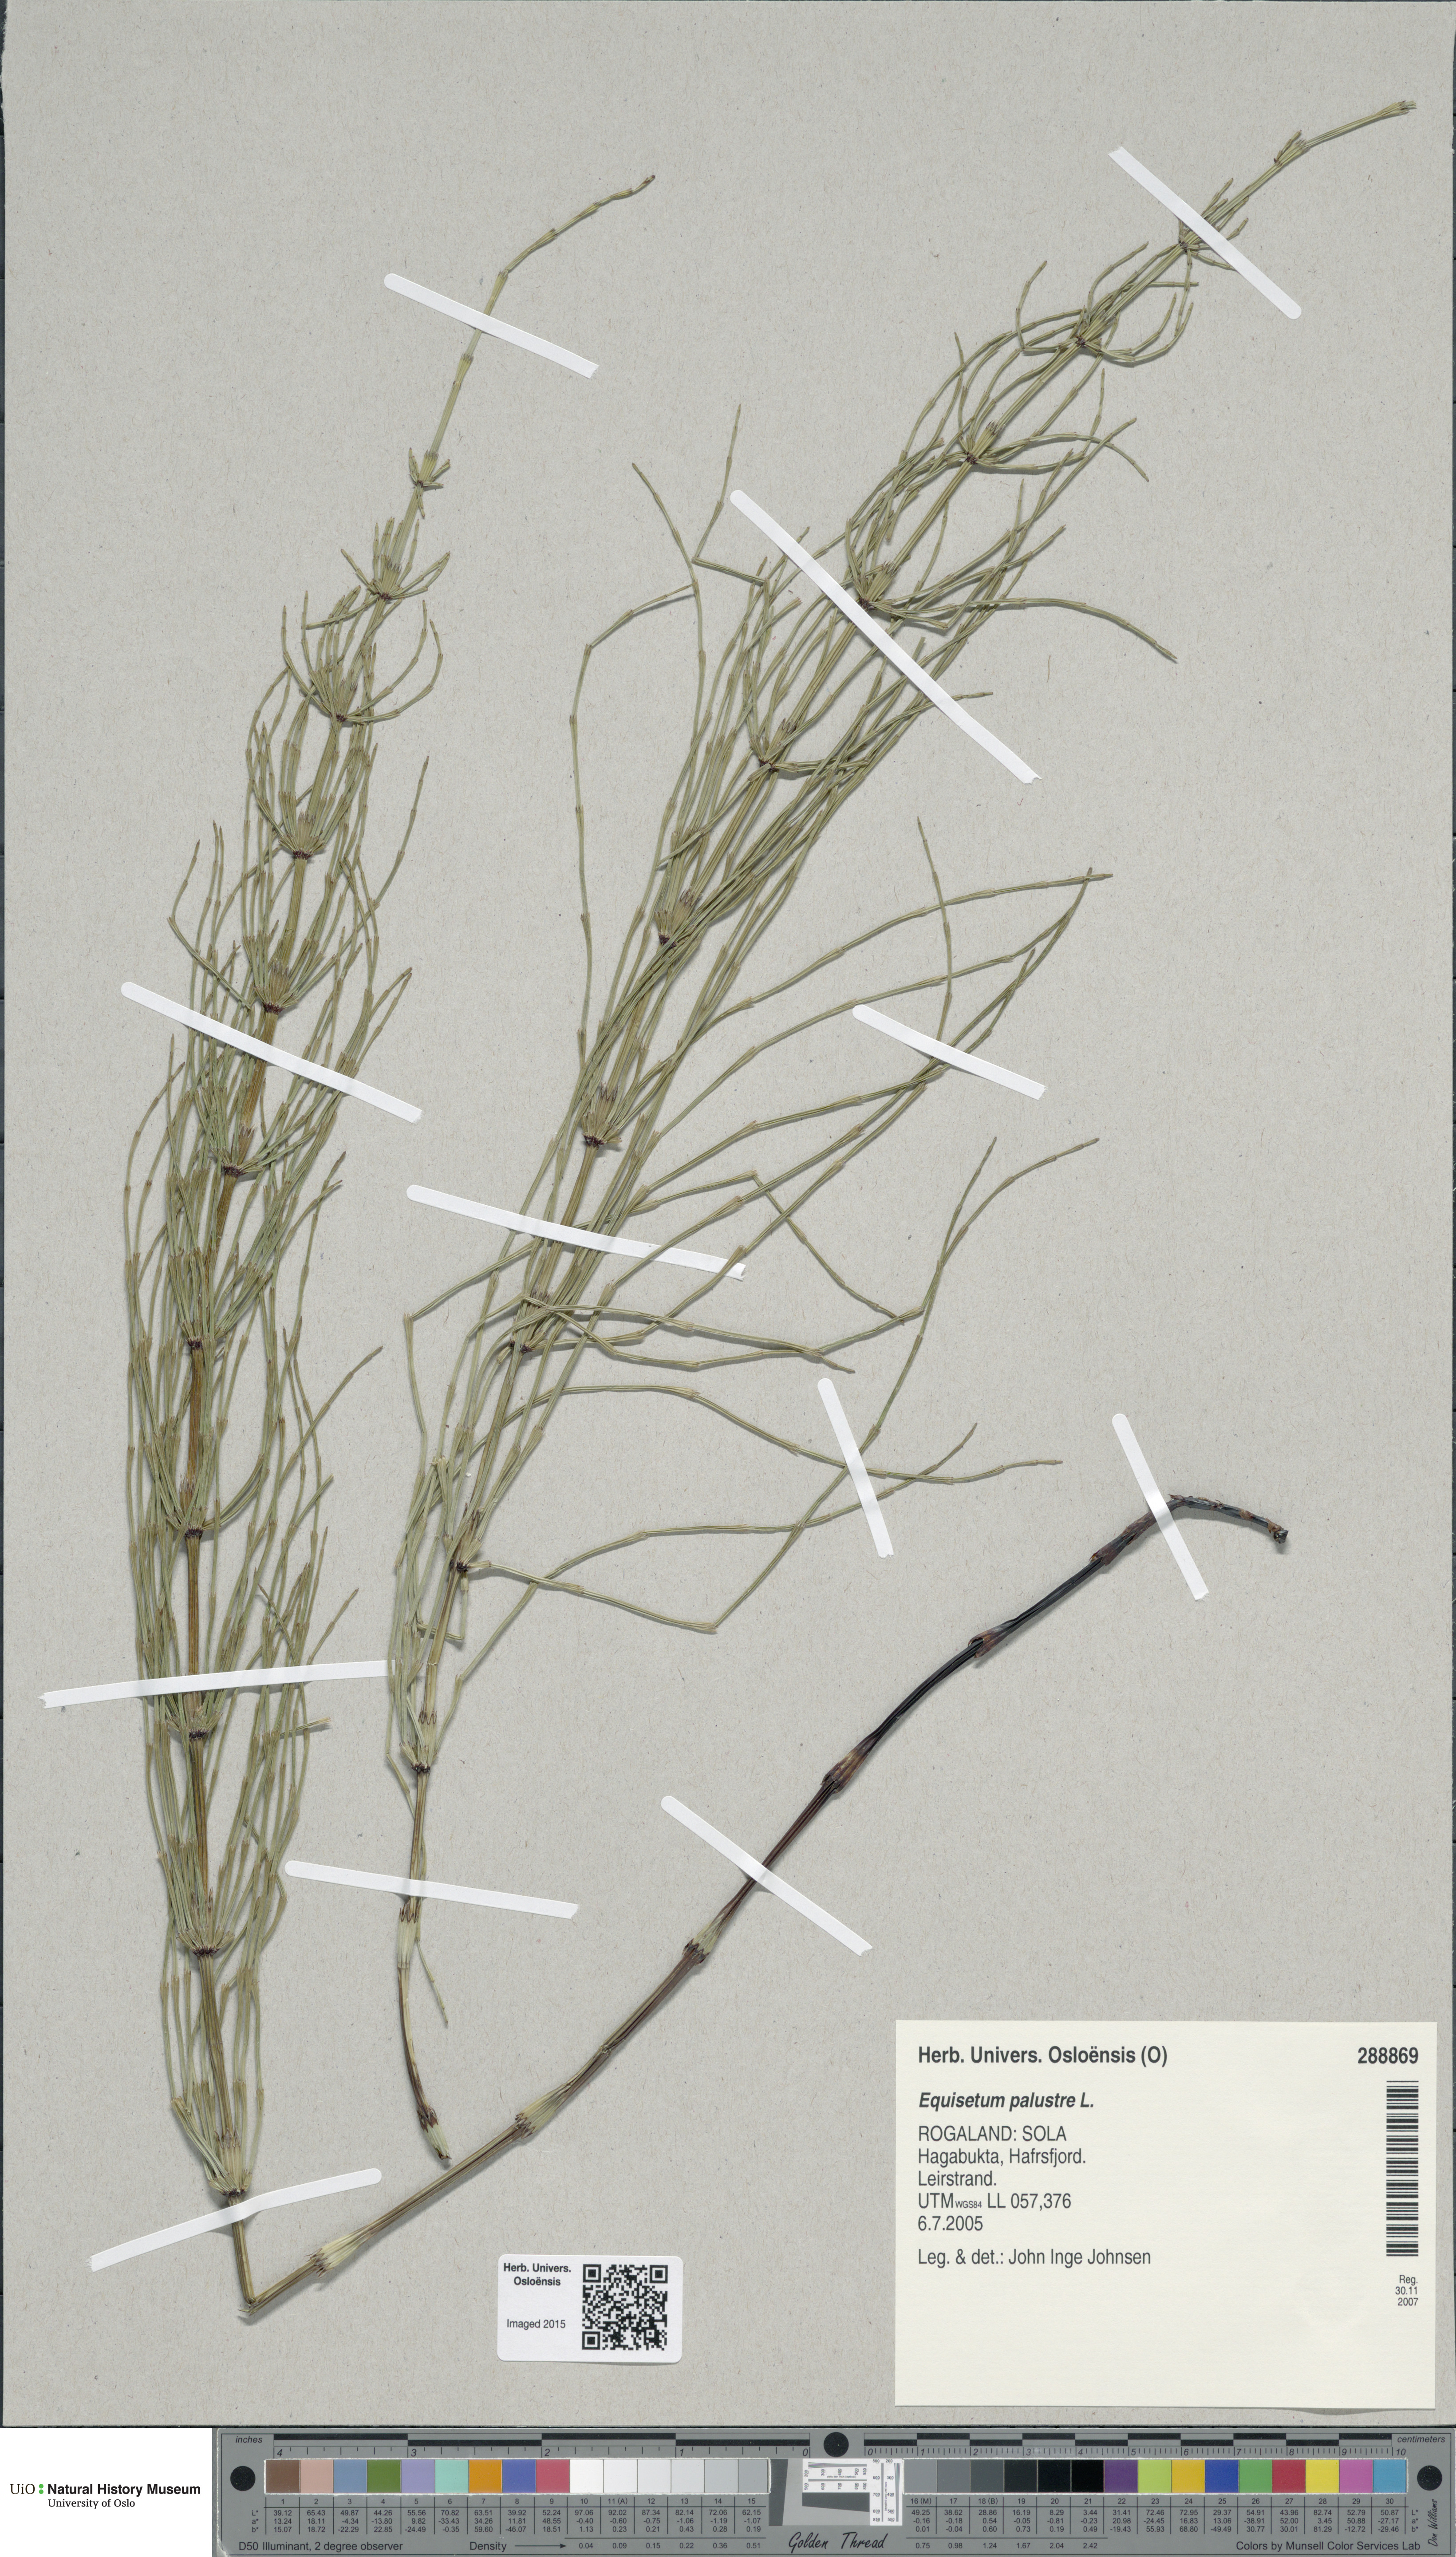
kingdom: Plantae
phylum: Tracheophyta
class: Polypodiopsida
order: Equisetales
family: Equisetaceae
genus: Equisetum
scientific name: Equisetum palustre
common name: Marsh horsetail
